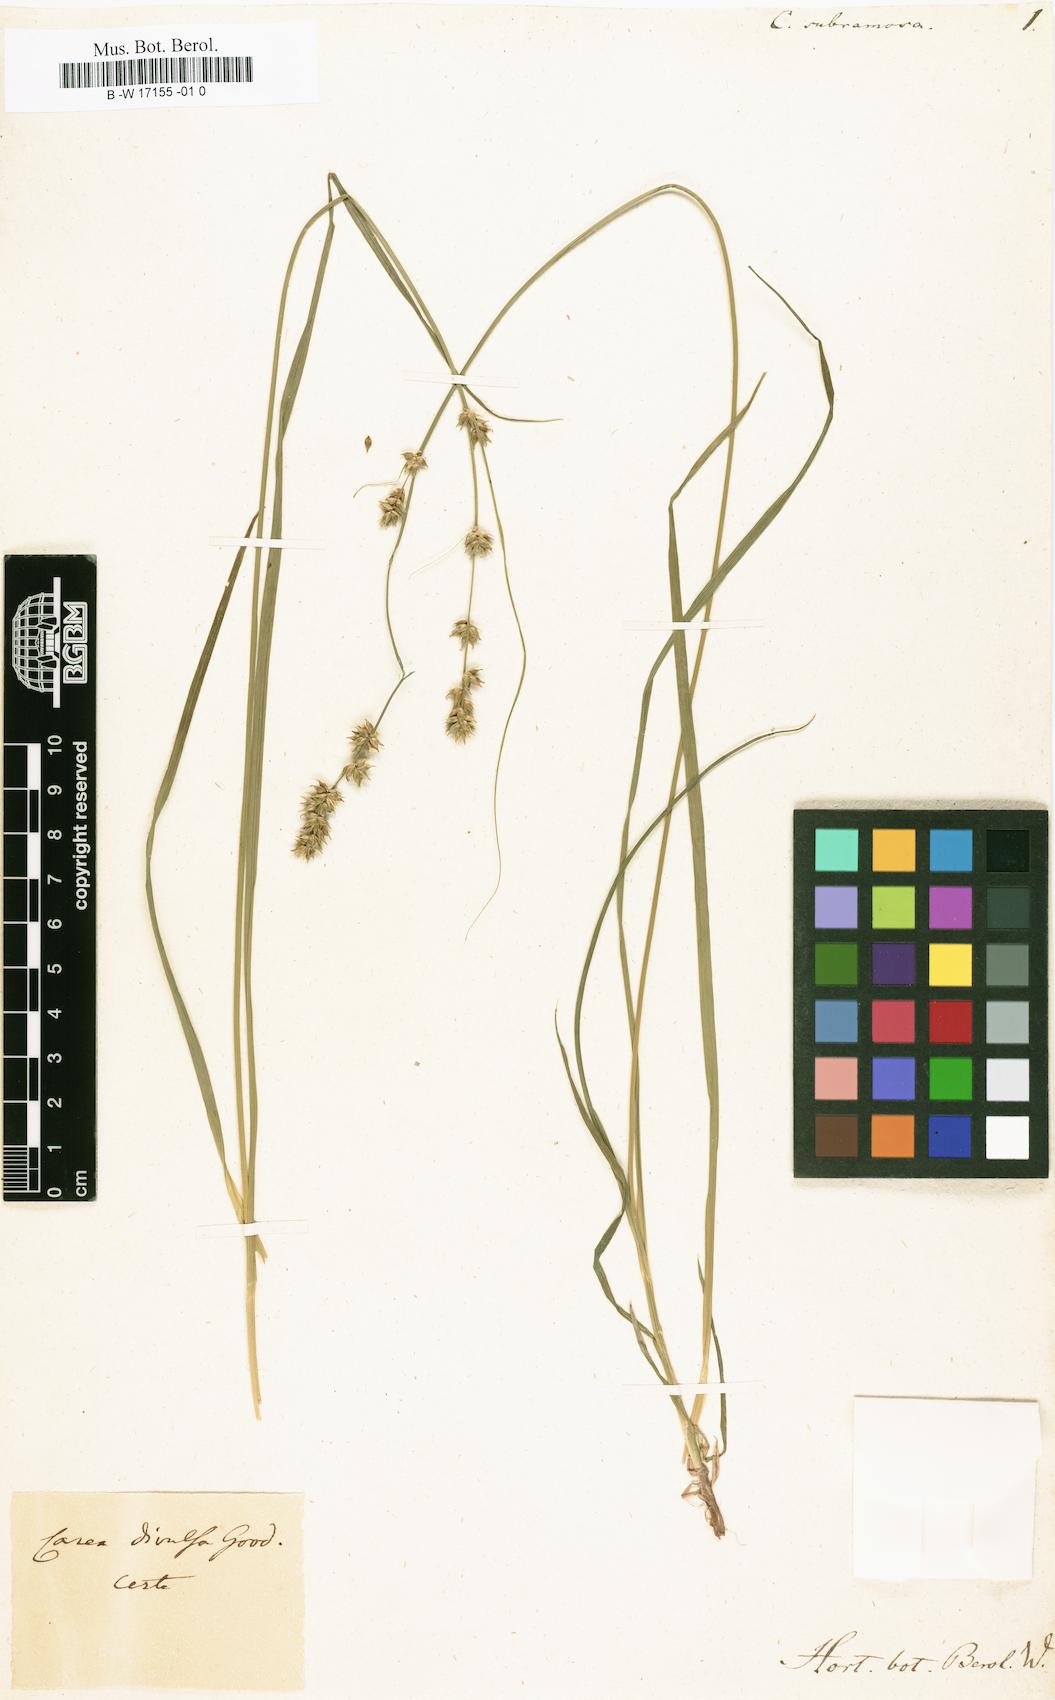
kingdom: Plantae
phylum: Tracheophyta
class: Liliopsida
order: Poales
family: Cyperaceae
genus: Carex
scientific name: Carex divulsa
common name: Grassland sedge
